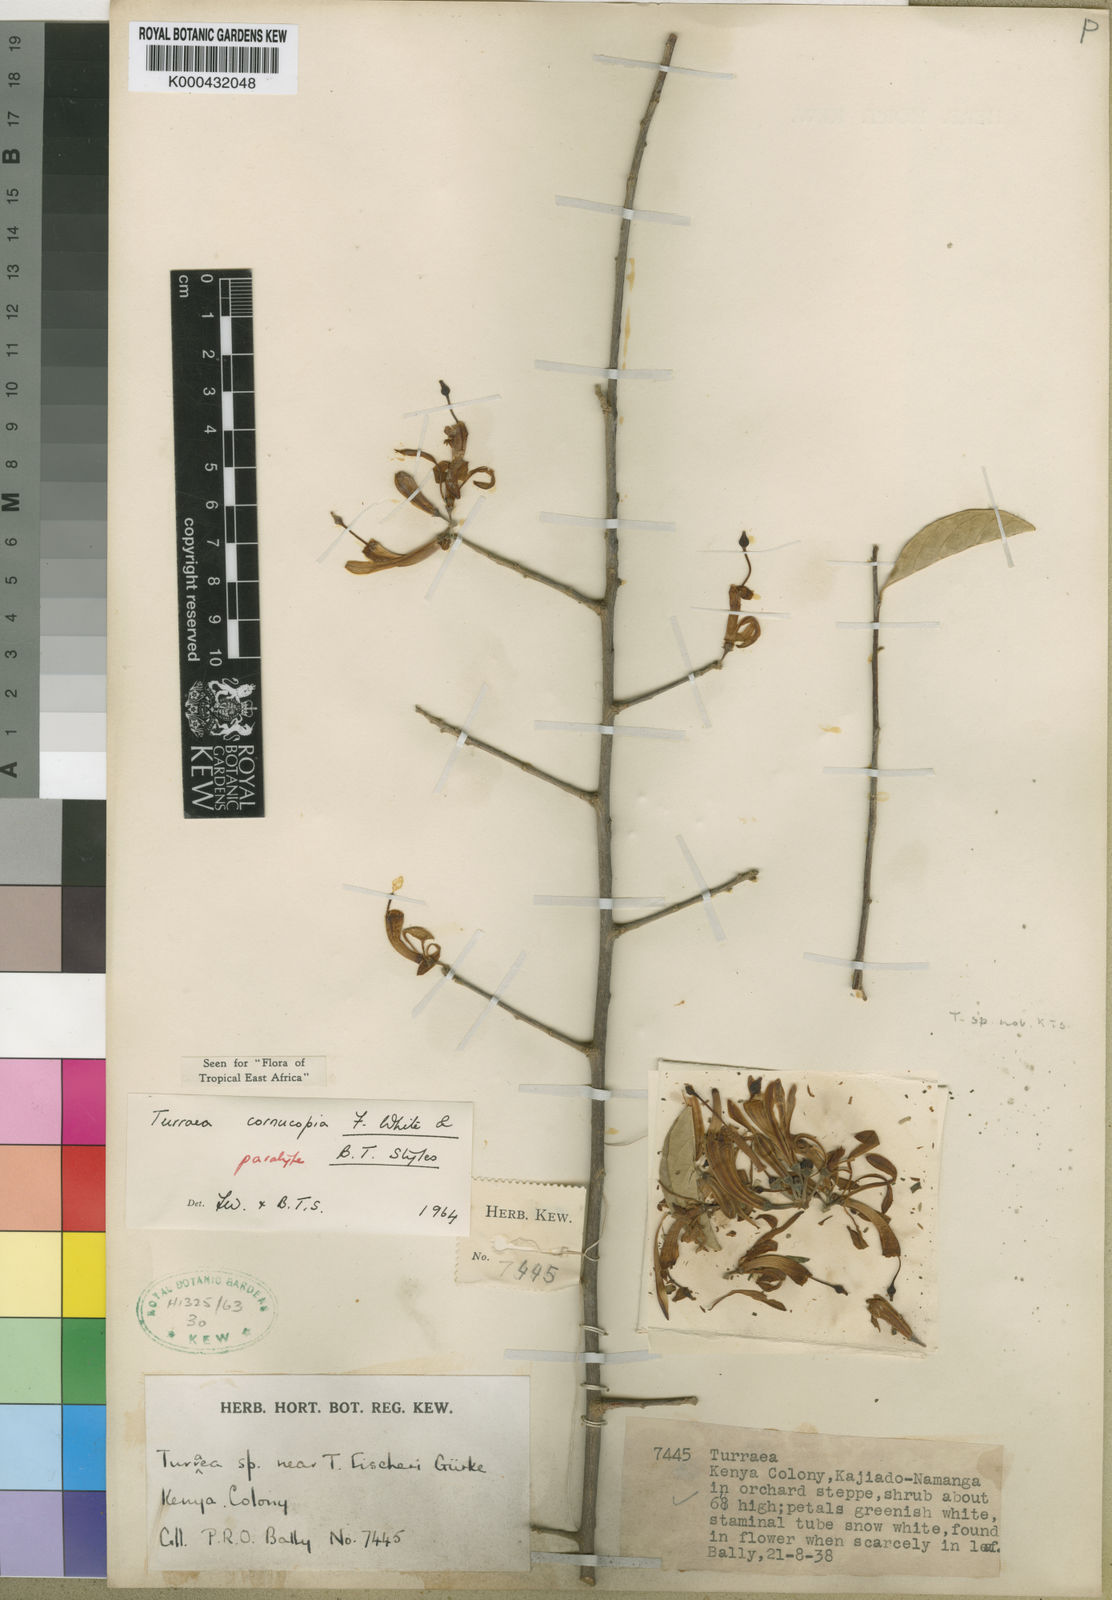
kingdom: Plantae
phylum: Tracheophyta
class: Magnoliopsida
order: Sapindales
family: Meliaceae
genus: Turraea
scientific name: Turraea cornucopia
